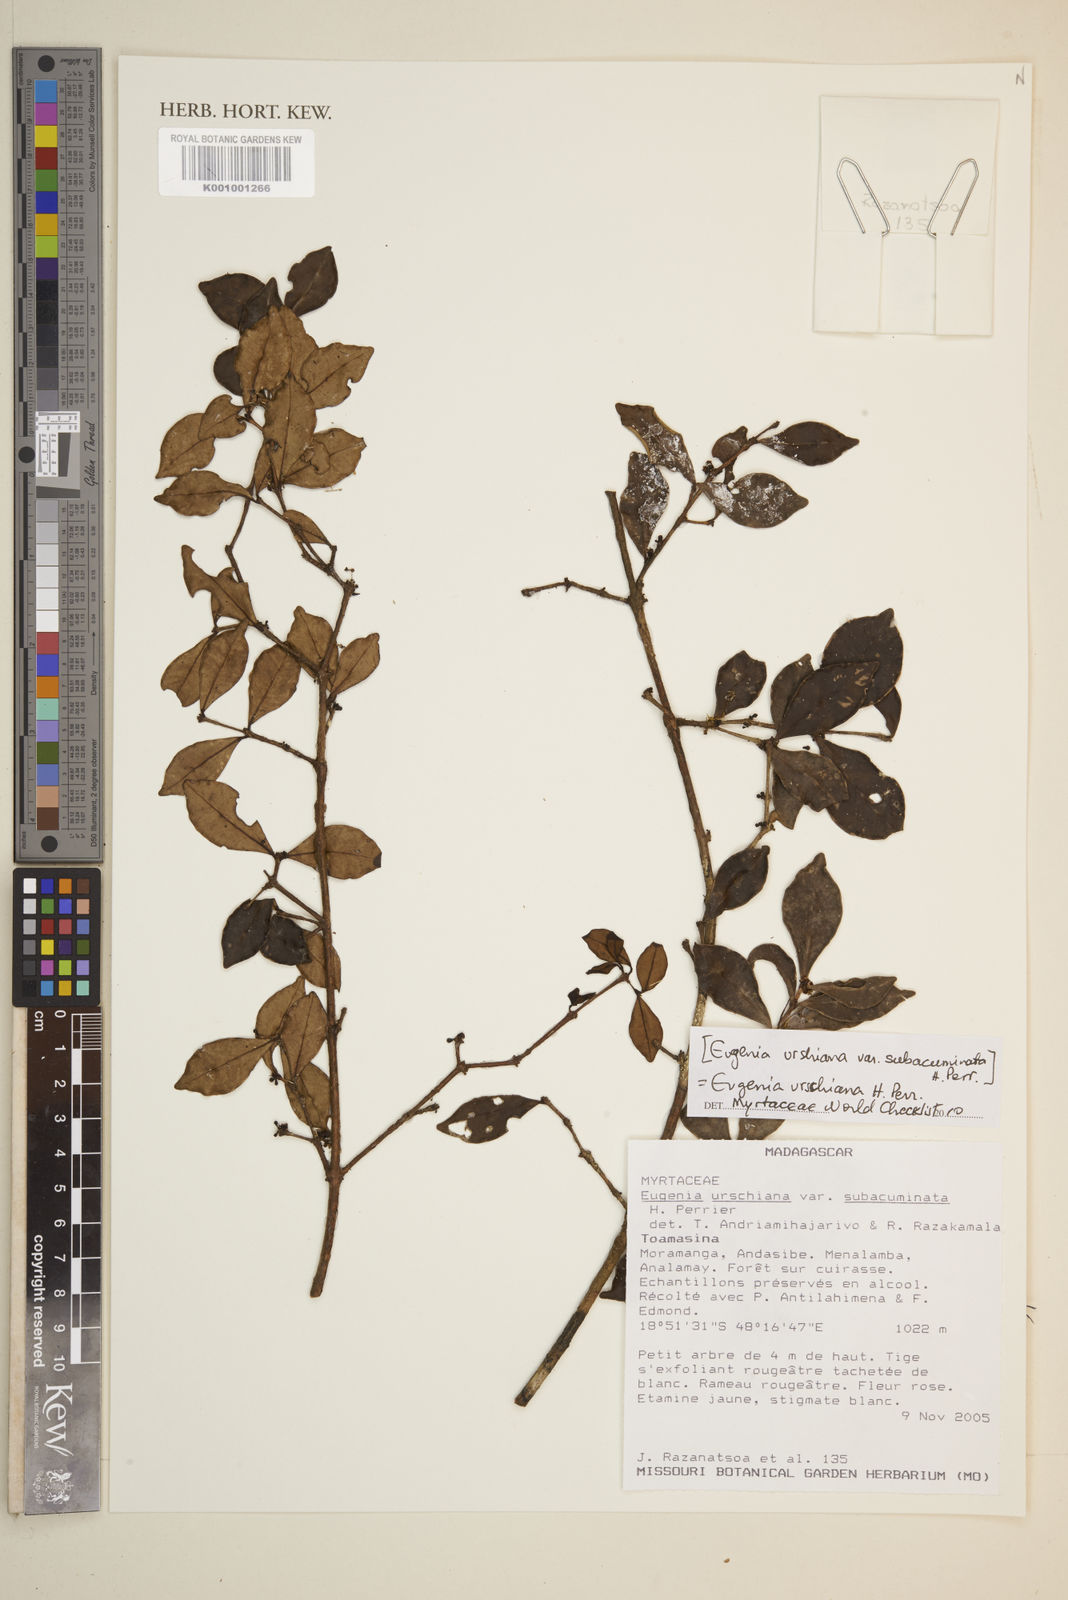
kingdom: Plantae
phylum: Tracheophyta
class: Magnoliopsida
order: Myrtales
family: Myrtaceae
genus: Eugenia
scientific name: Eugenia urschiana
